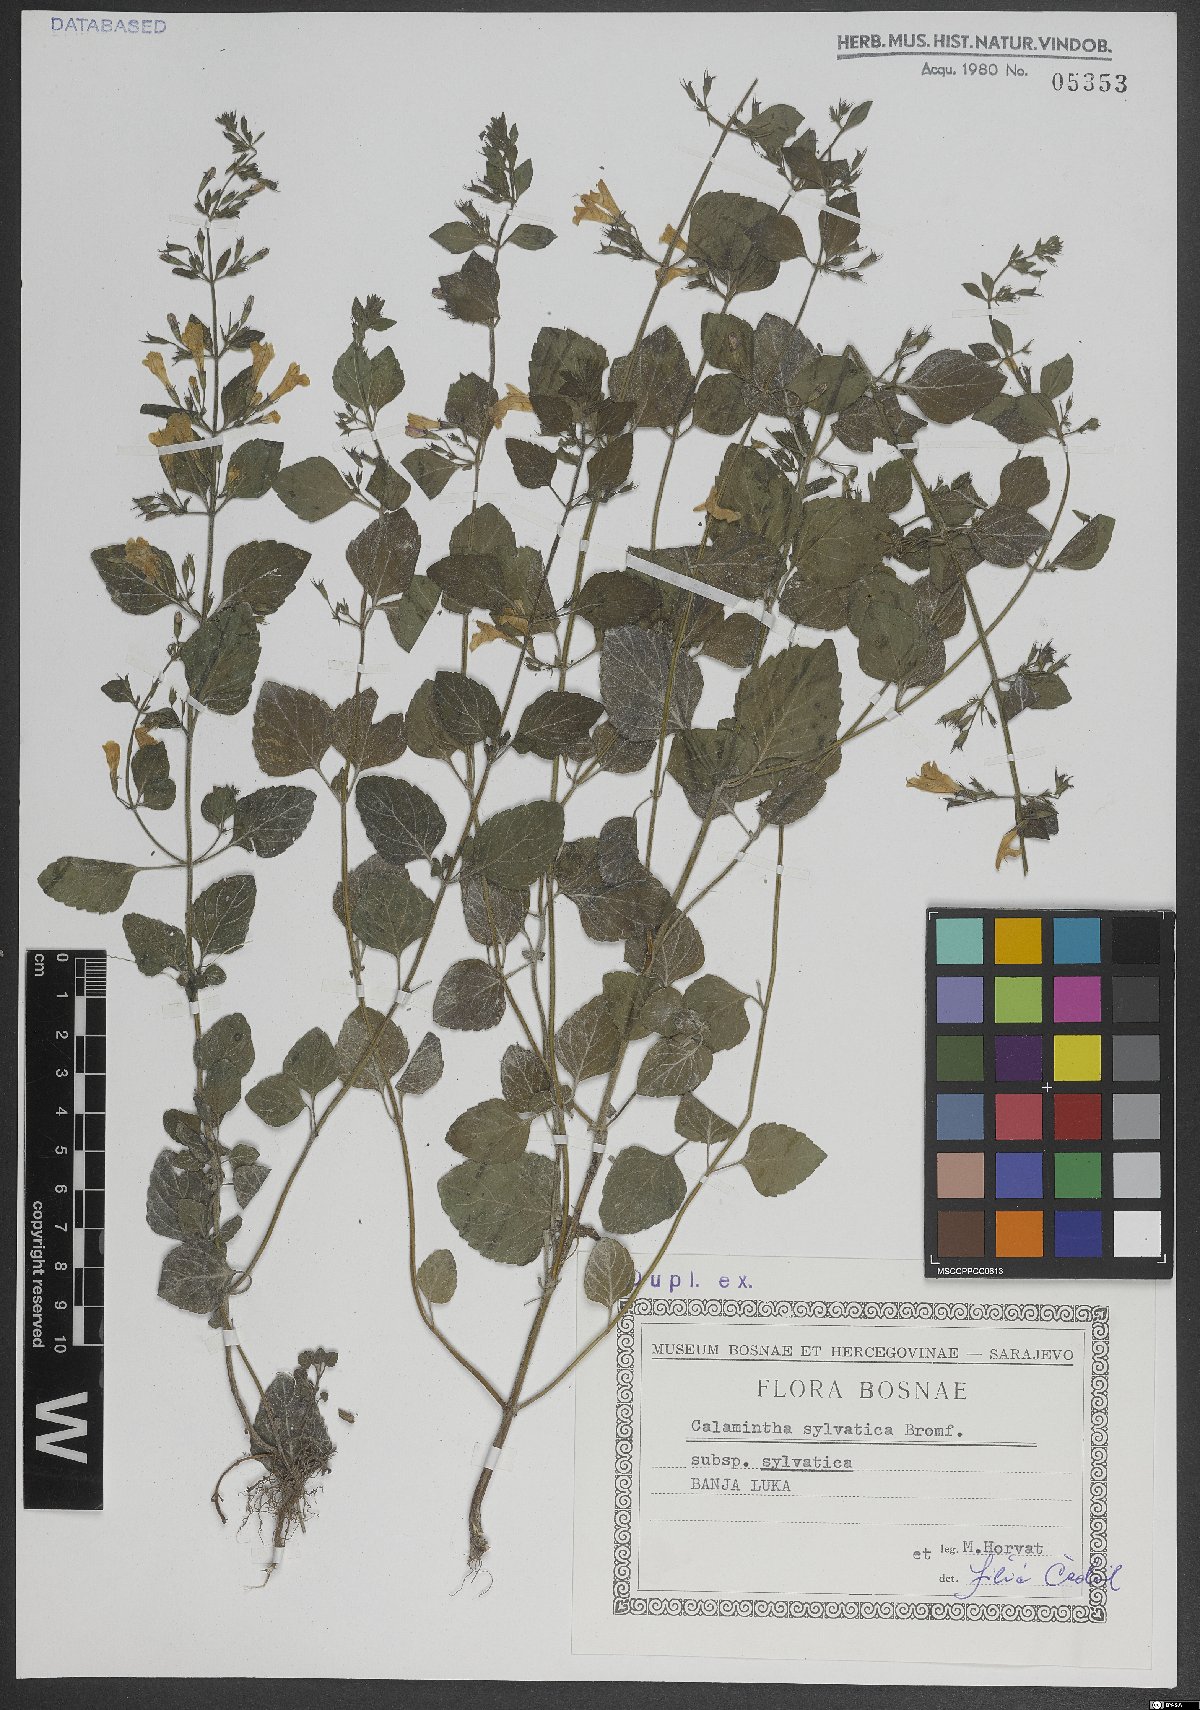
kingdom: Plantae
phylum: Tracheophyta
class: Magnoliopsida
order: Lamiales
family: Lamiaceae
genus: Clinopodium
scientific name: Clinopodium menthifolium
